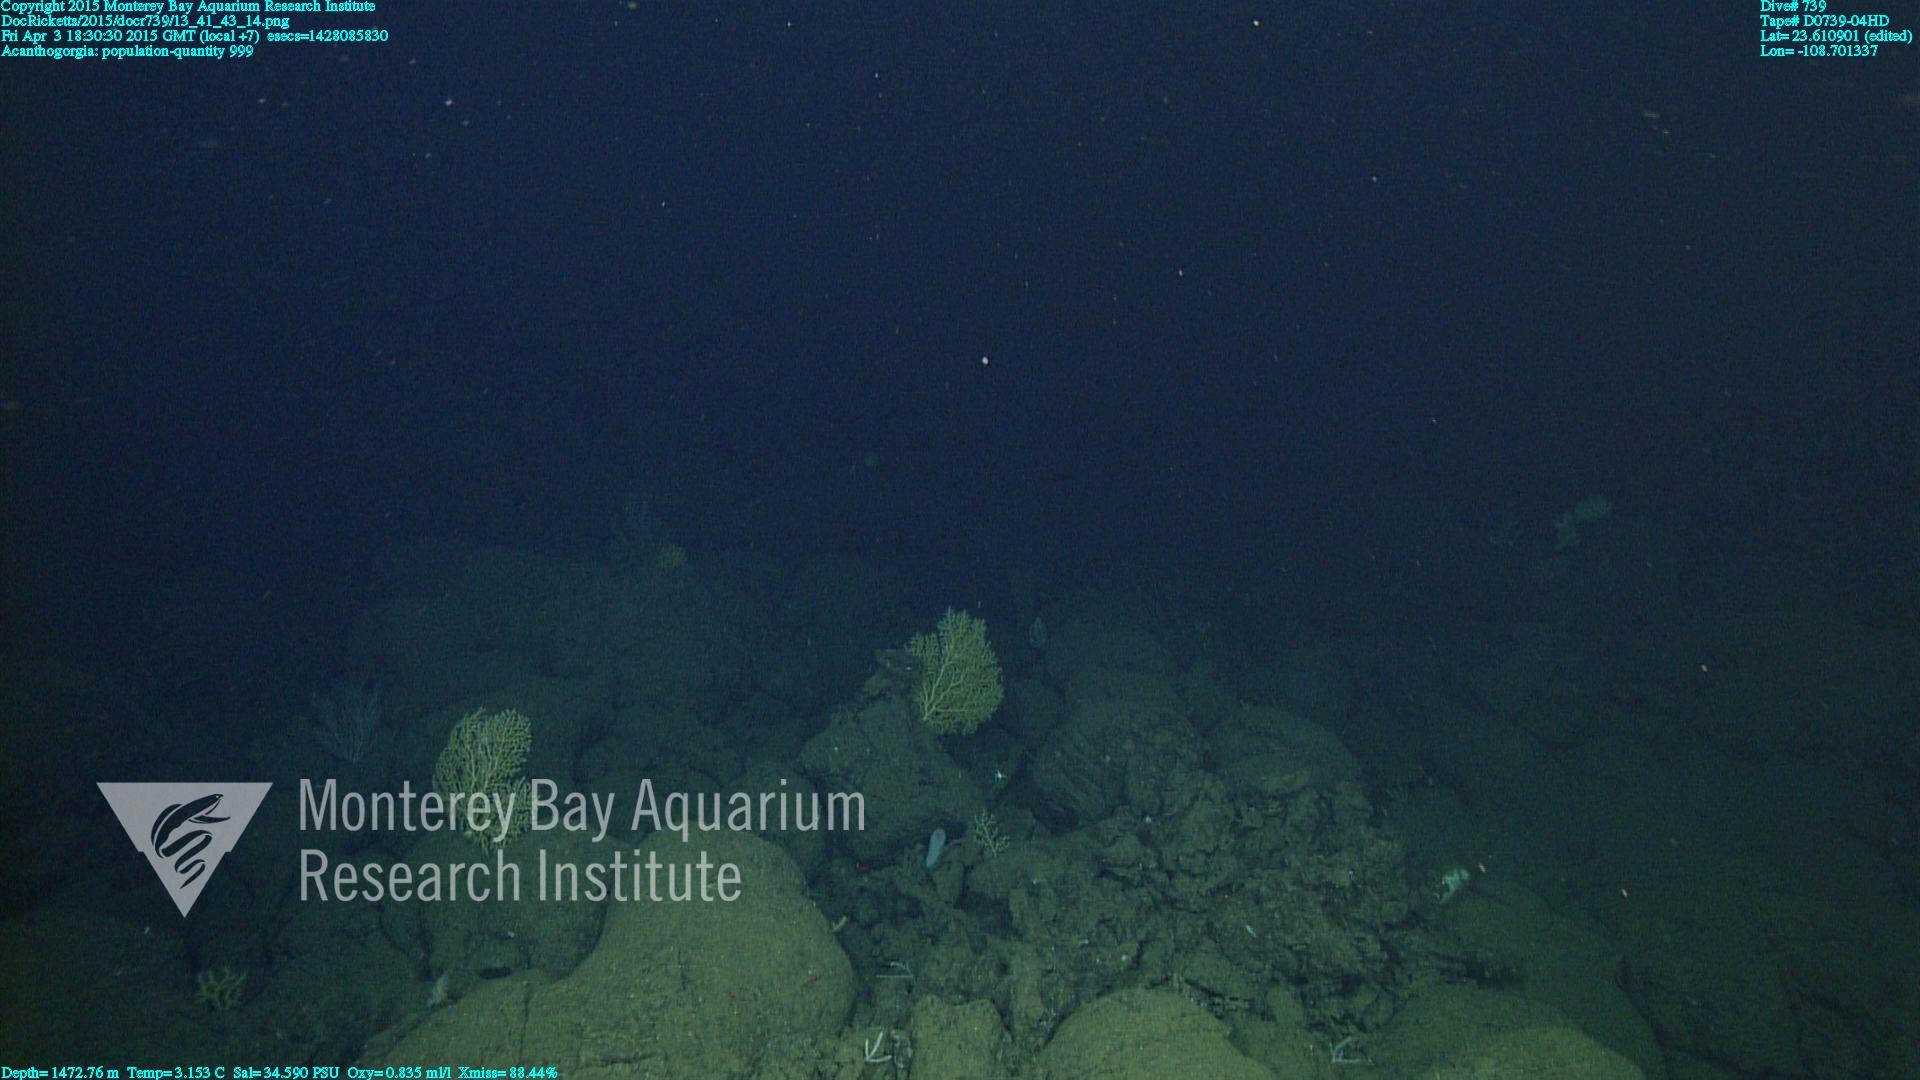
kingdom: Animalia
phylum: Cnidaria
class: Anthozoa
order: Malacalcyonacea
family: Paramuriceidae
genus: Acanthogorgia
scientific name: Acanthogorgia
